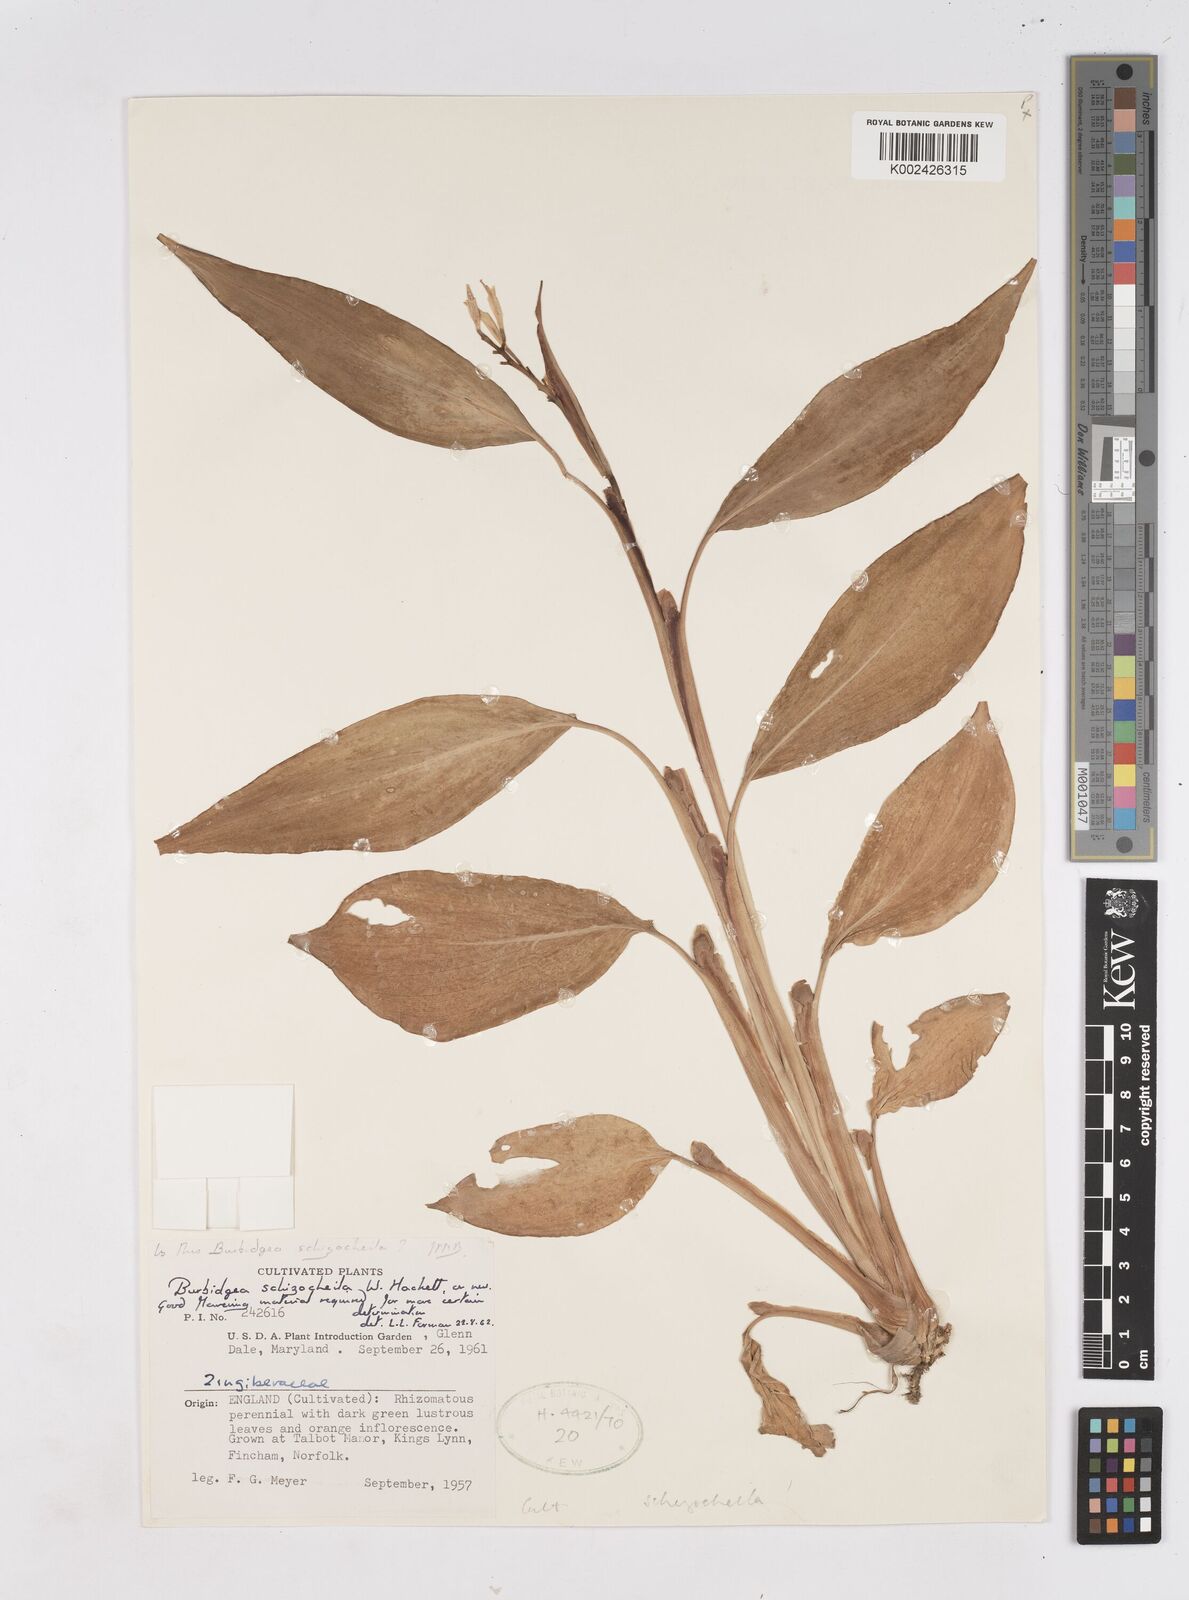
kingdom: Plantae
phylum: Tracheophyta
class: Liliopsida
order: Zingiberales
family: Zingiberaceae
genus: Burbidgea
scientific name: Burbidgea schizocheila
